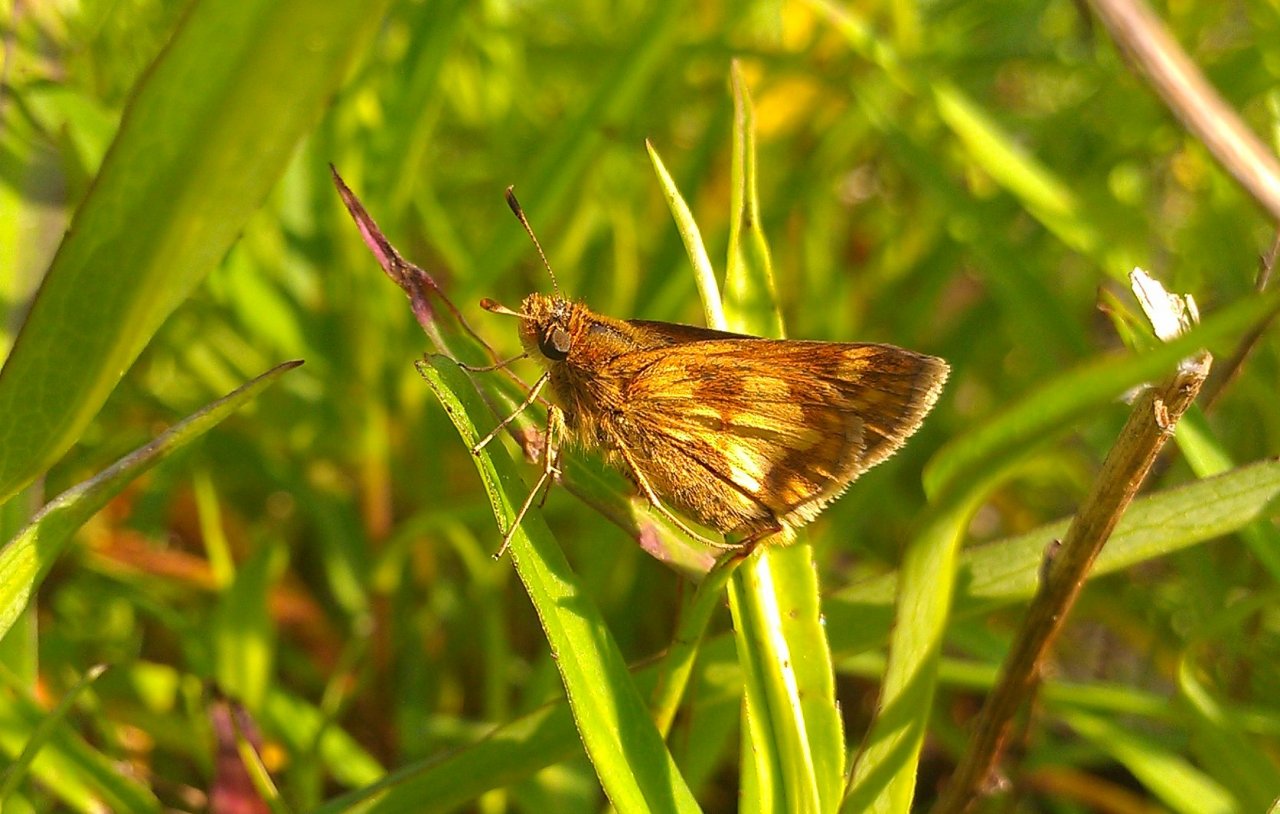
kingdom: Animalia
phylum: Arthropoda
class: Insecta
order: Lepidoptera
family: Hesperiidae
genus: Polites
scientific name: Polites coras
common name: Peck's Skipper
